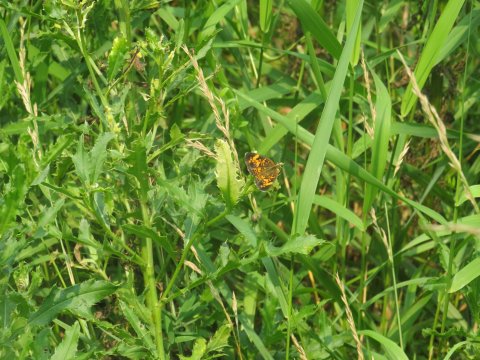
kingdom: Animalia
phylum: Arthropoda
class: Insecta
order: Lepidoptera
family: Nymphalidae
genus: Phyciodes
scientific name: Phyciodes tharos
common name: Pearl Crescent
